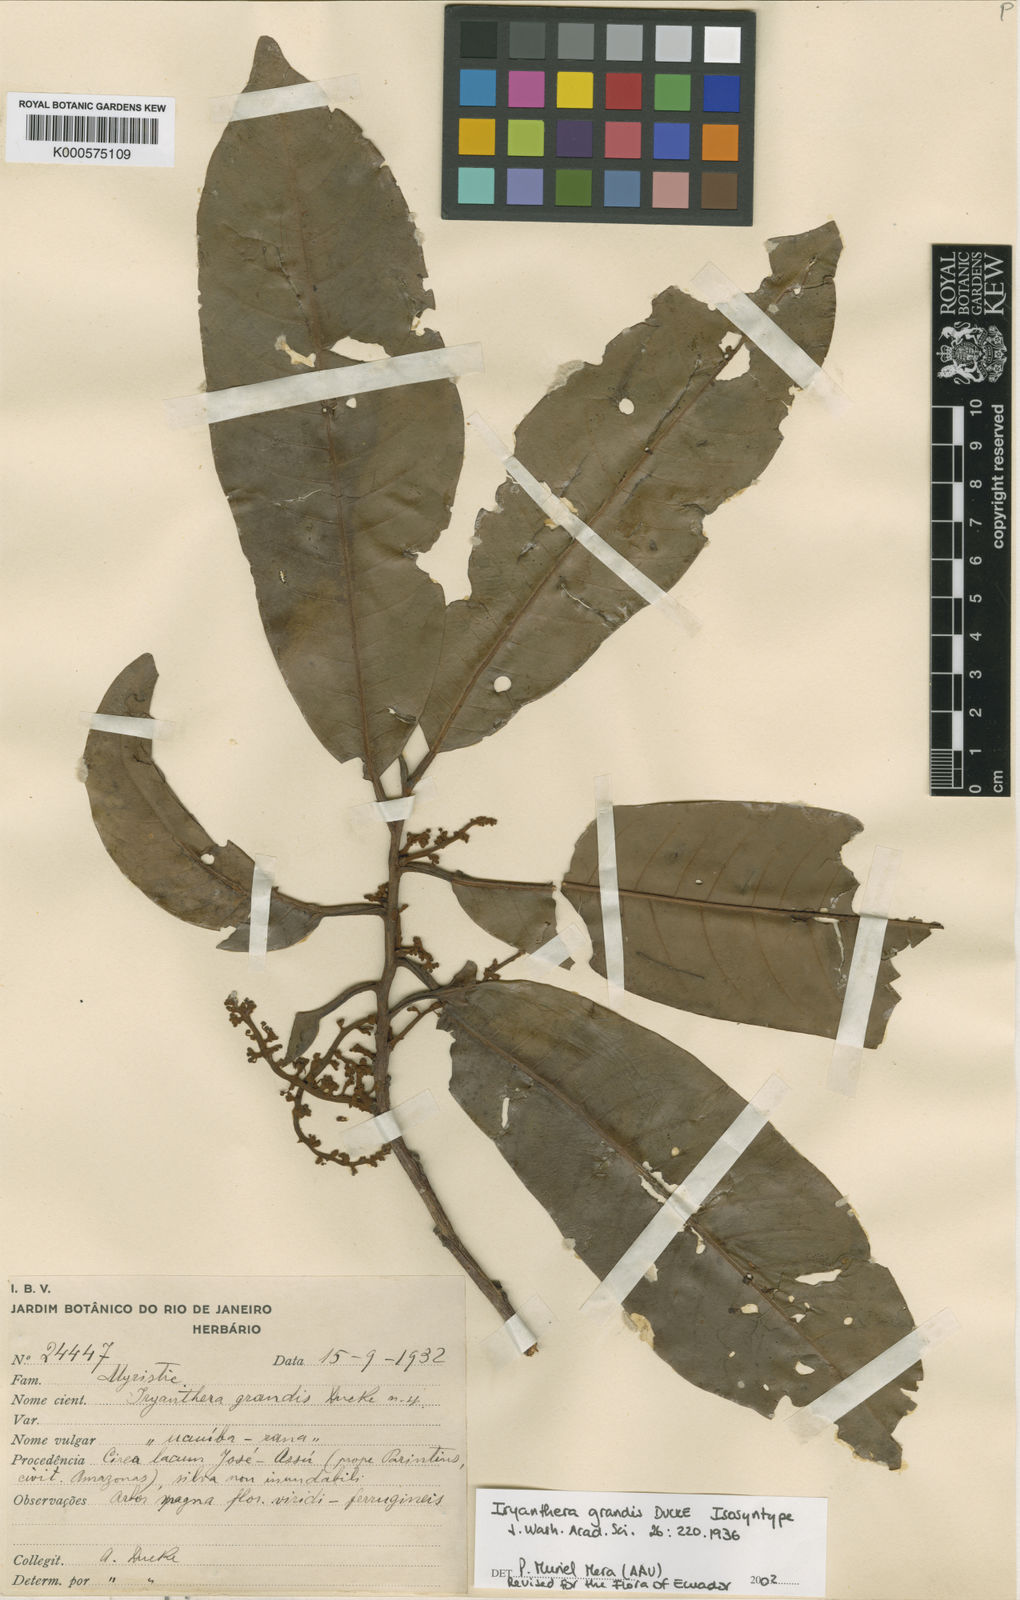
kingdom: Plantae
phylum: Tracheophyta
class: Magnoliopsida
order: Magnoliales
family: Myristicaceae
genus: Iryanthera
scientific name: Iryanthera grandis
